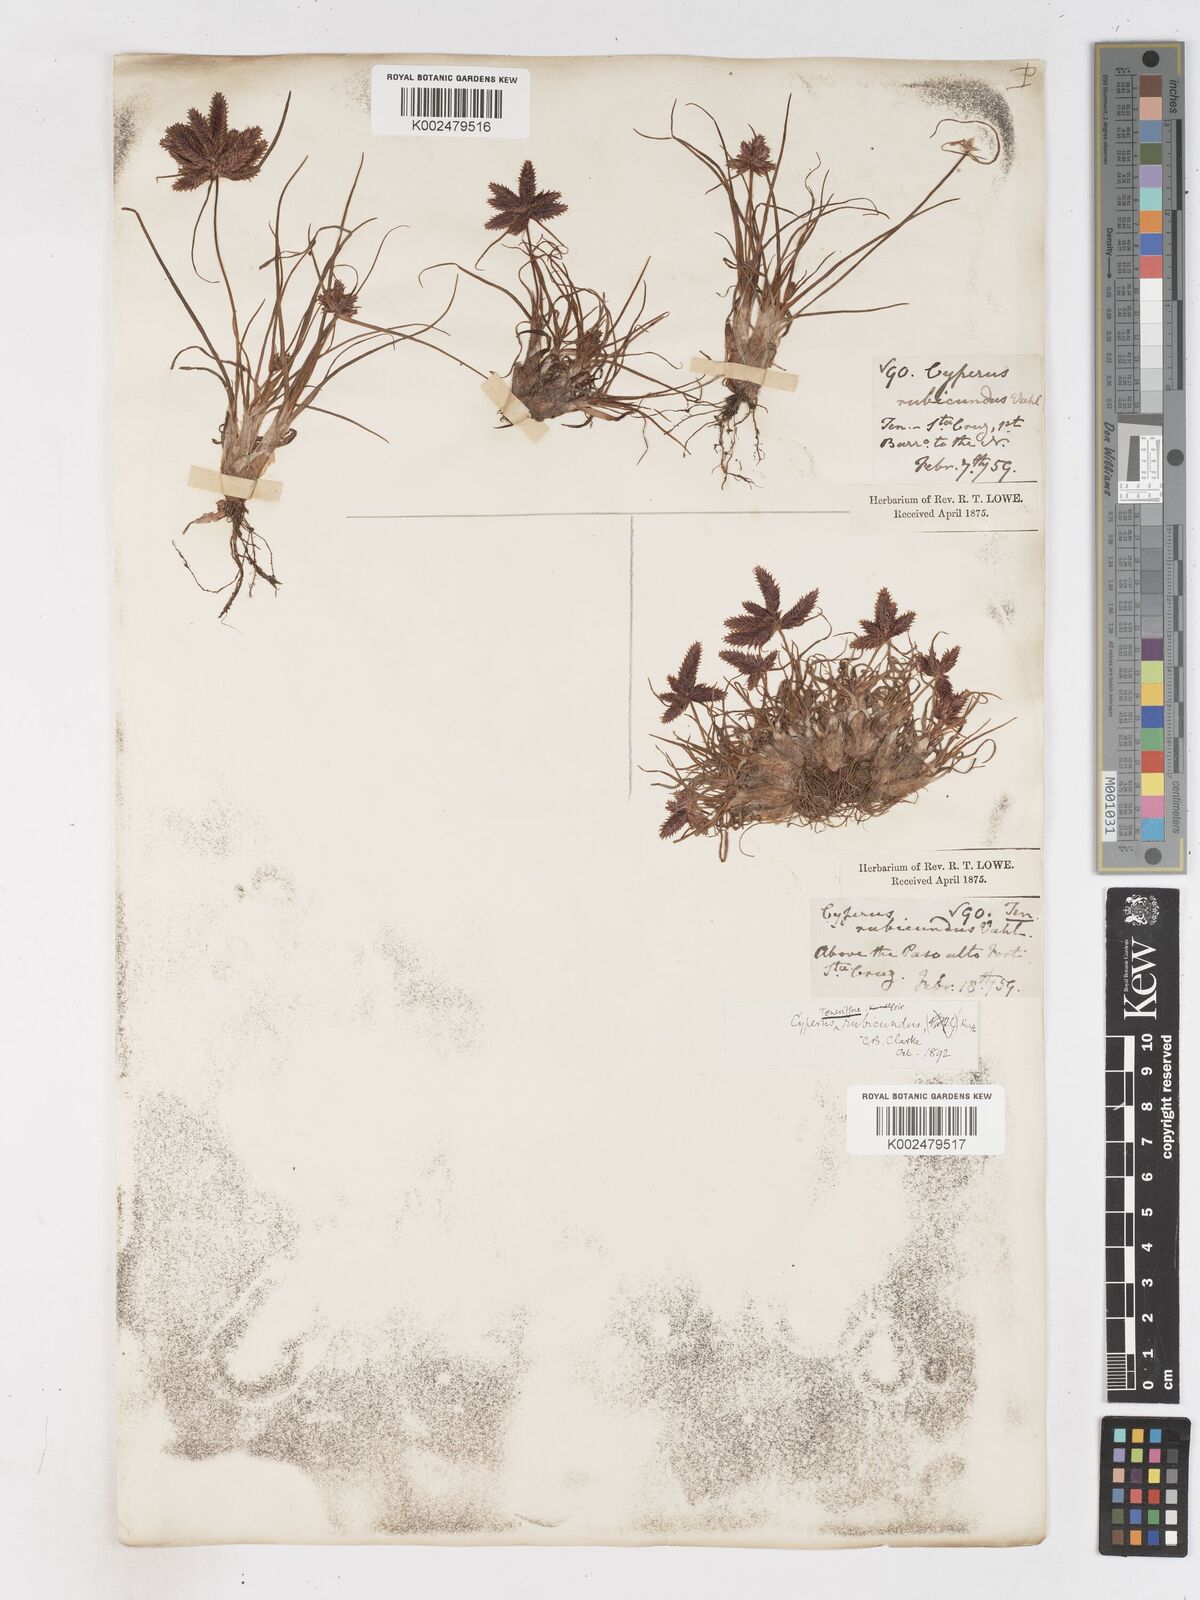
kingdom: Plantae
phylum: Tracheophyta
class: Liliopsida
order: Poales
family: Cyperaceae
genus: Cyperus
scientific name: Cyperus rubicundus
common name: Coco-grass
